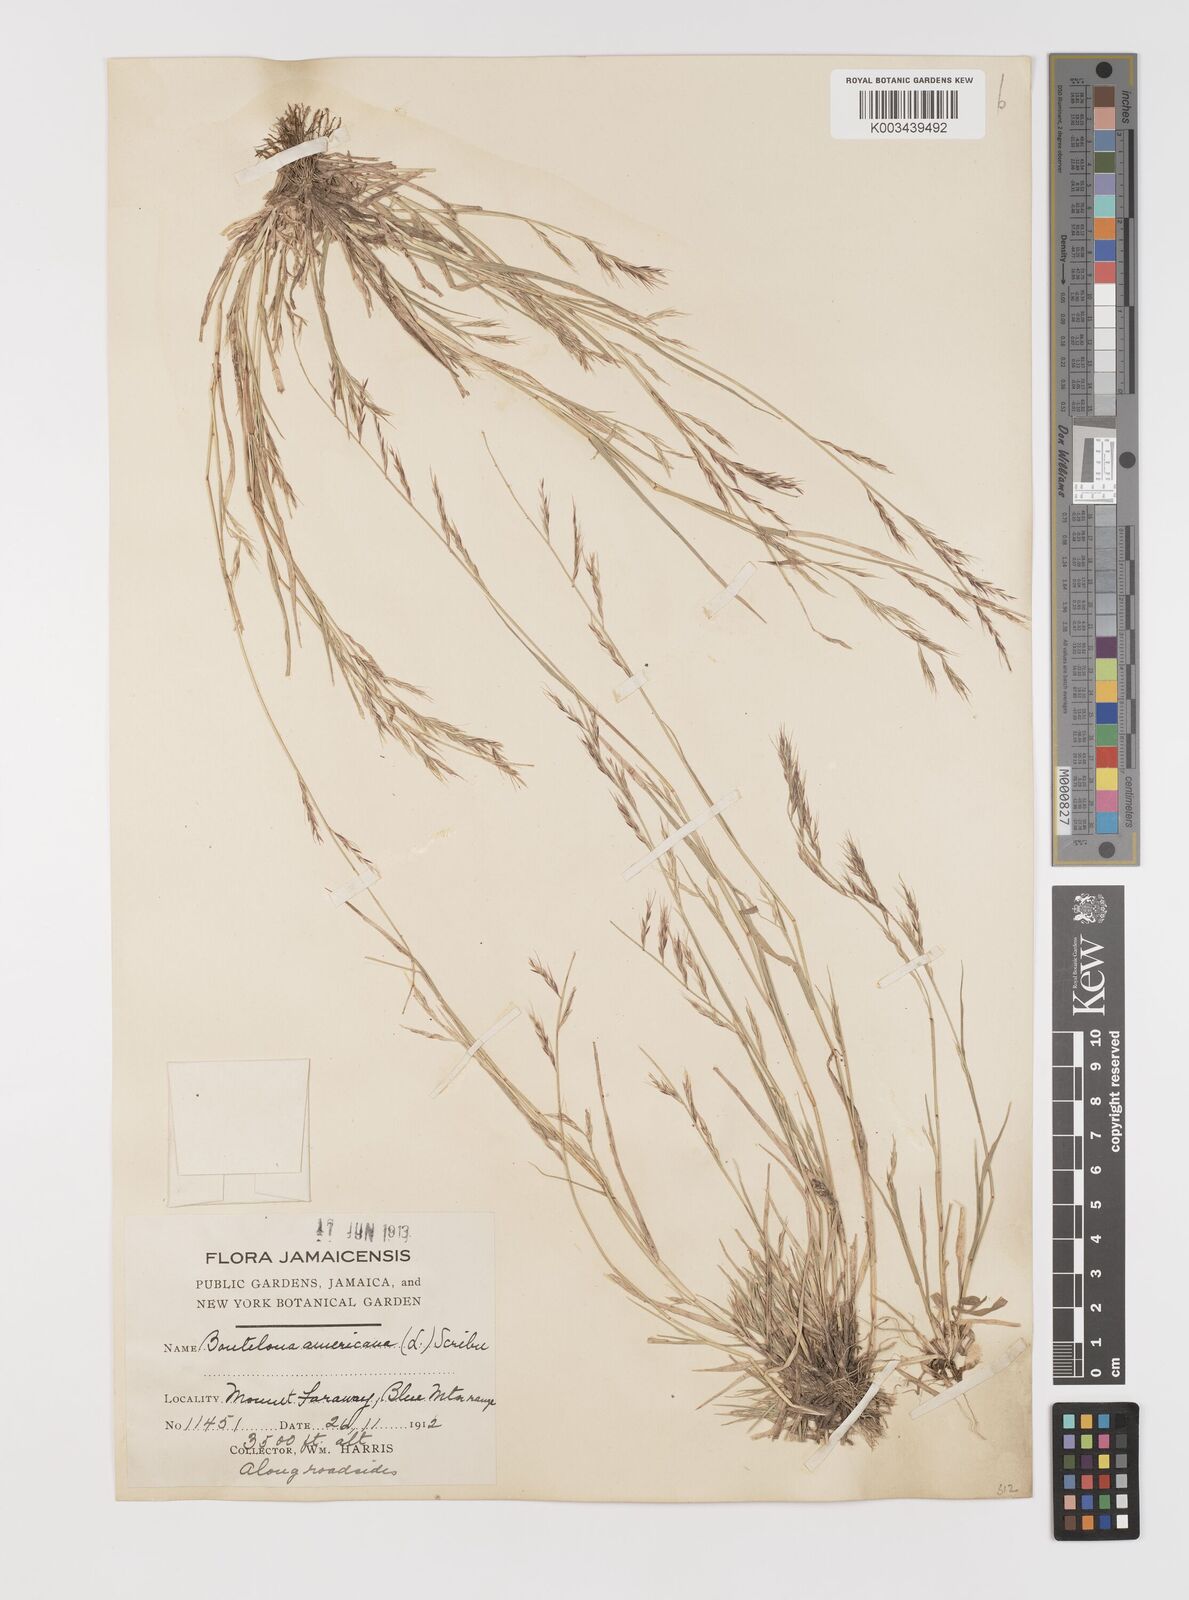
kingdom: Plantae
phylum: Tracheophyta
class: Liliopsida
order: Poales
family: Poaceae
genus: Bouteloua
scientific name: Bouteloua americana
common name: Mule grass
